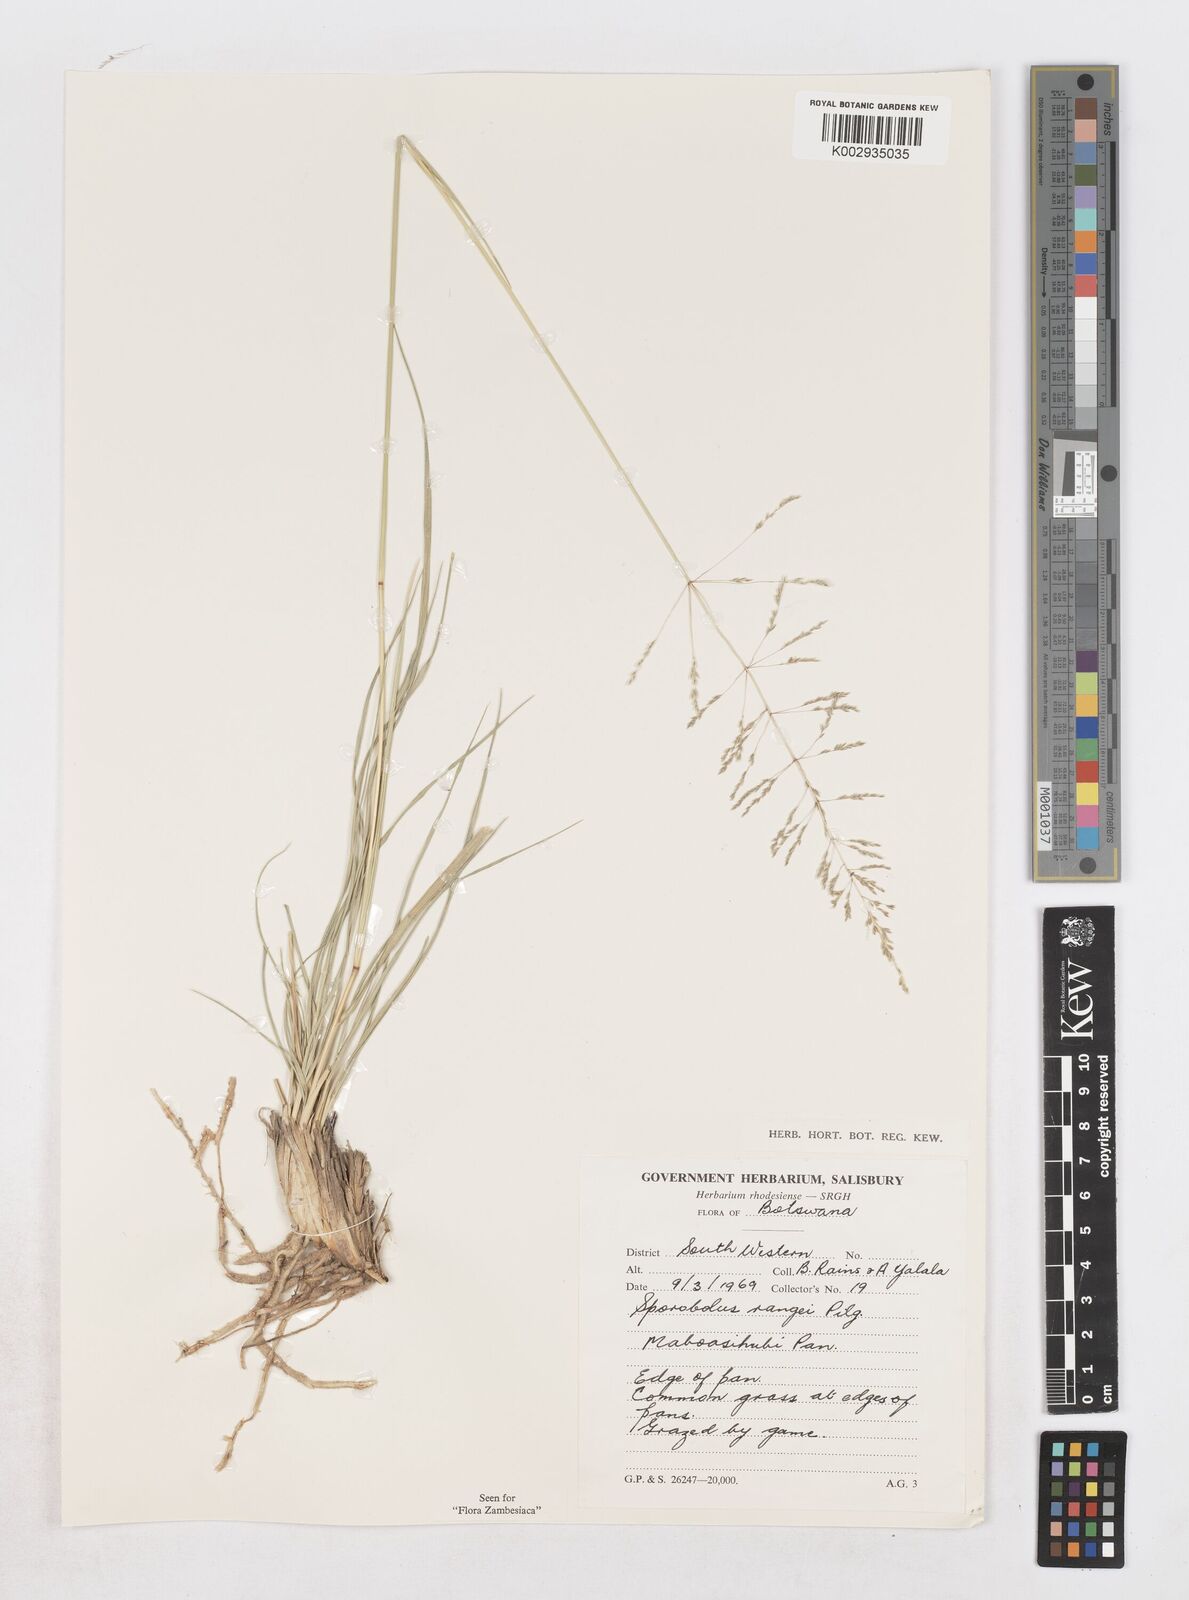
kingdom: Plantae
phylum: Tracheophyta
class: Liliopsida
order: Poales
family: Poaceae
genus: Sporobolus
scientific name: Sporobolus ioclados
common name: Pan dropseed
